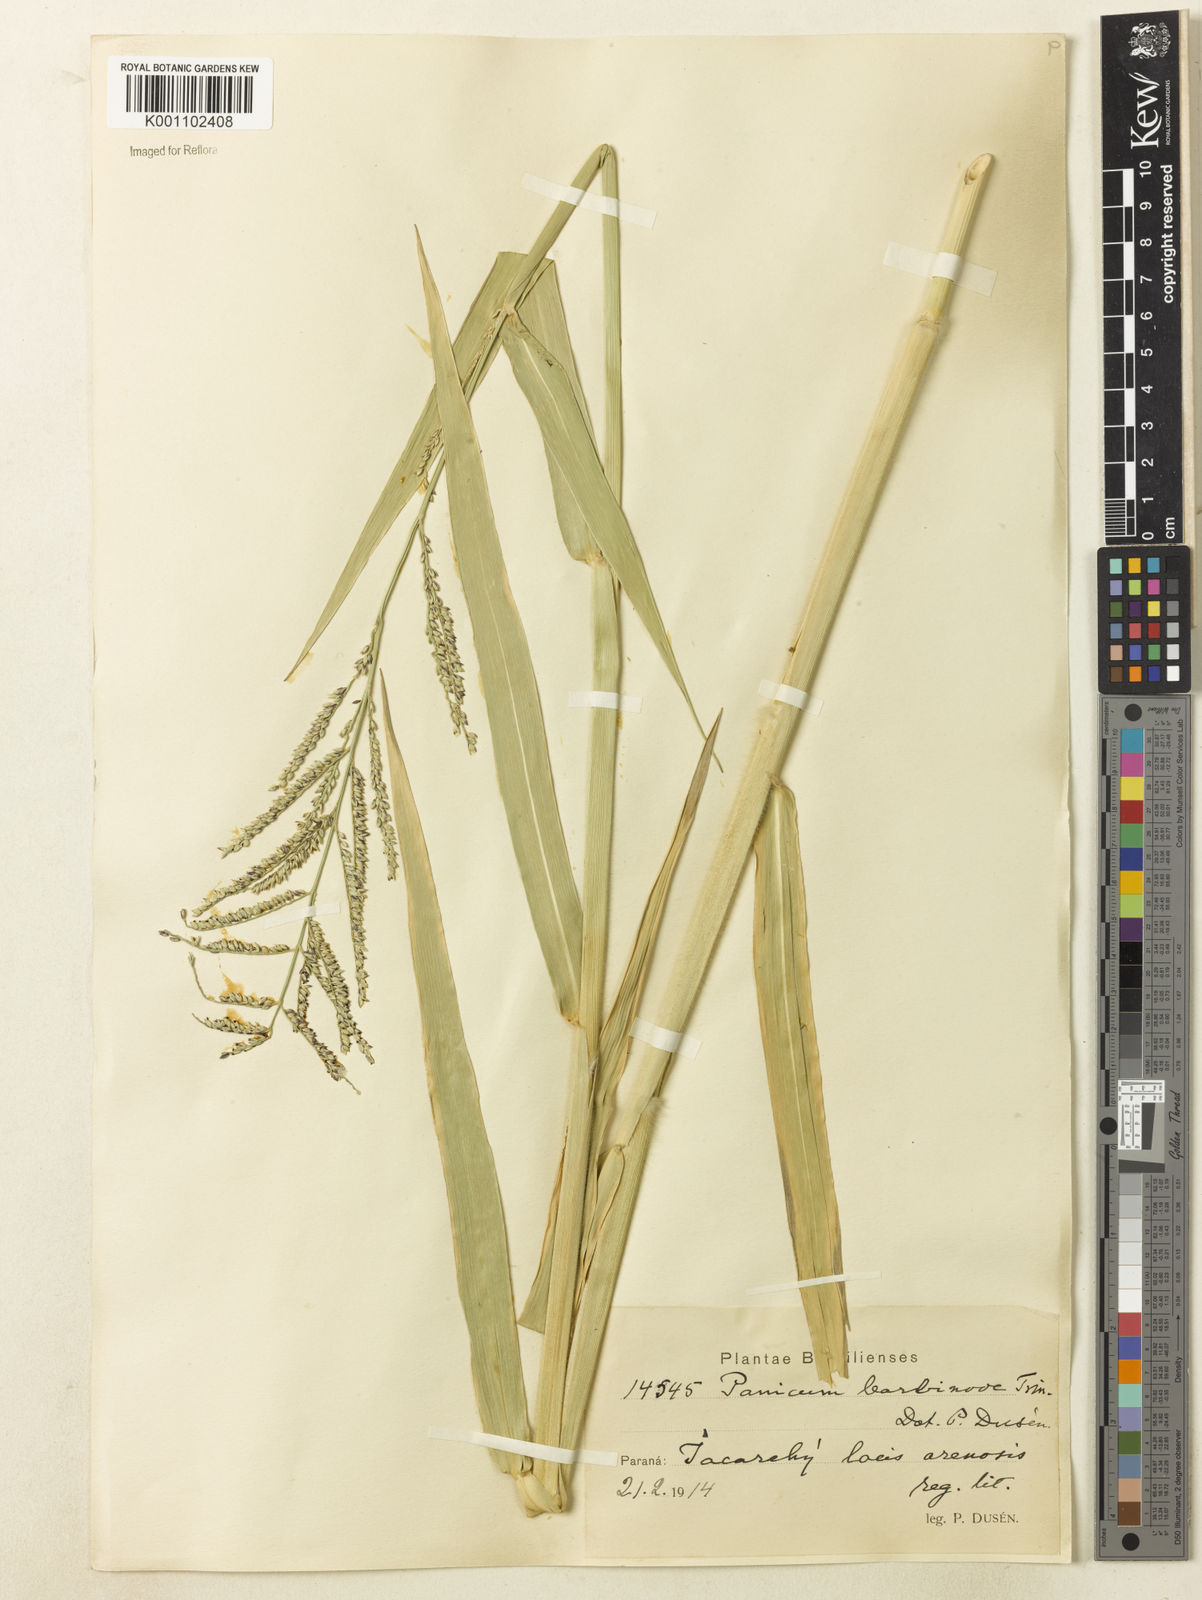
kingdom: Plantae
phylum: Tracheophyta
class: Liliopsida
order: Poales
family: Poaceae
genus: Urochloa
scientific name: Urochloa mutica
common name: Para grass
